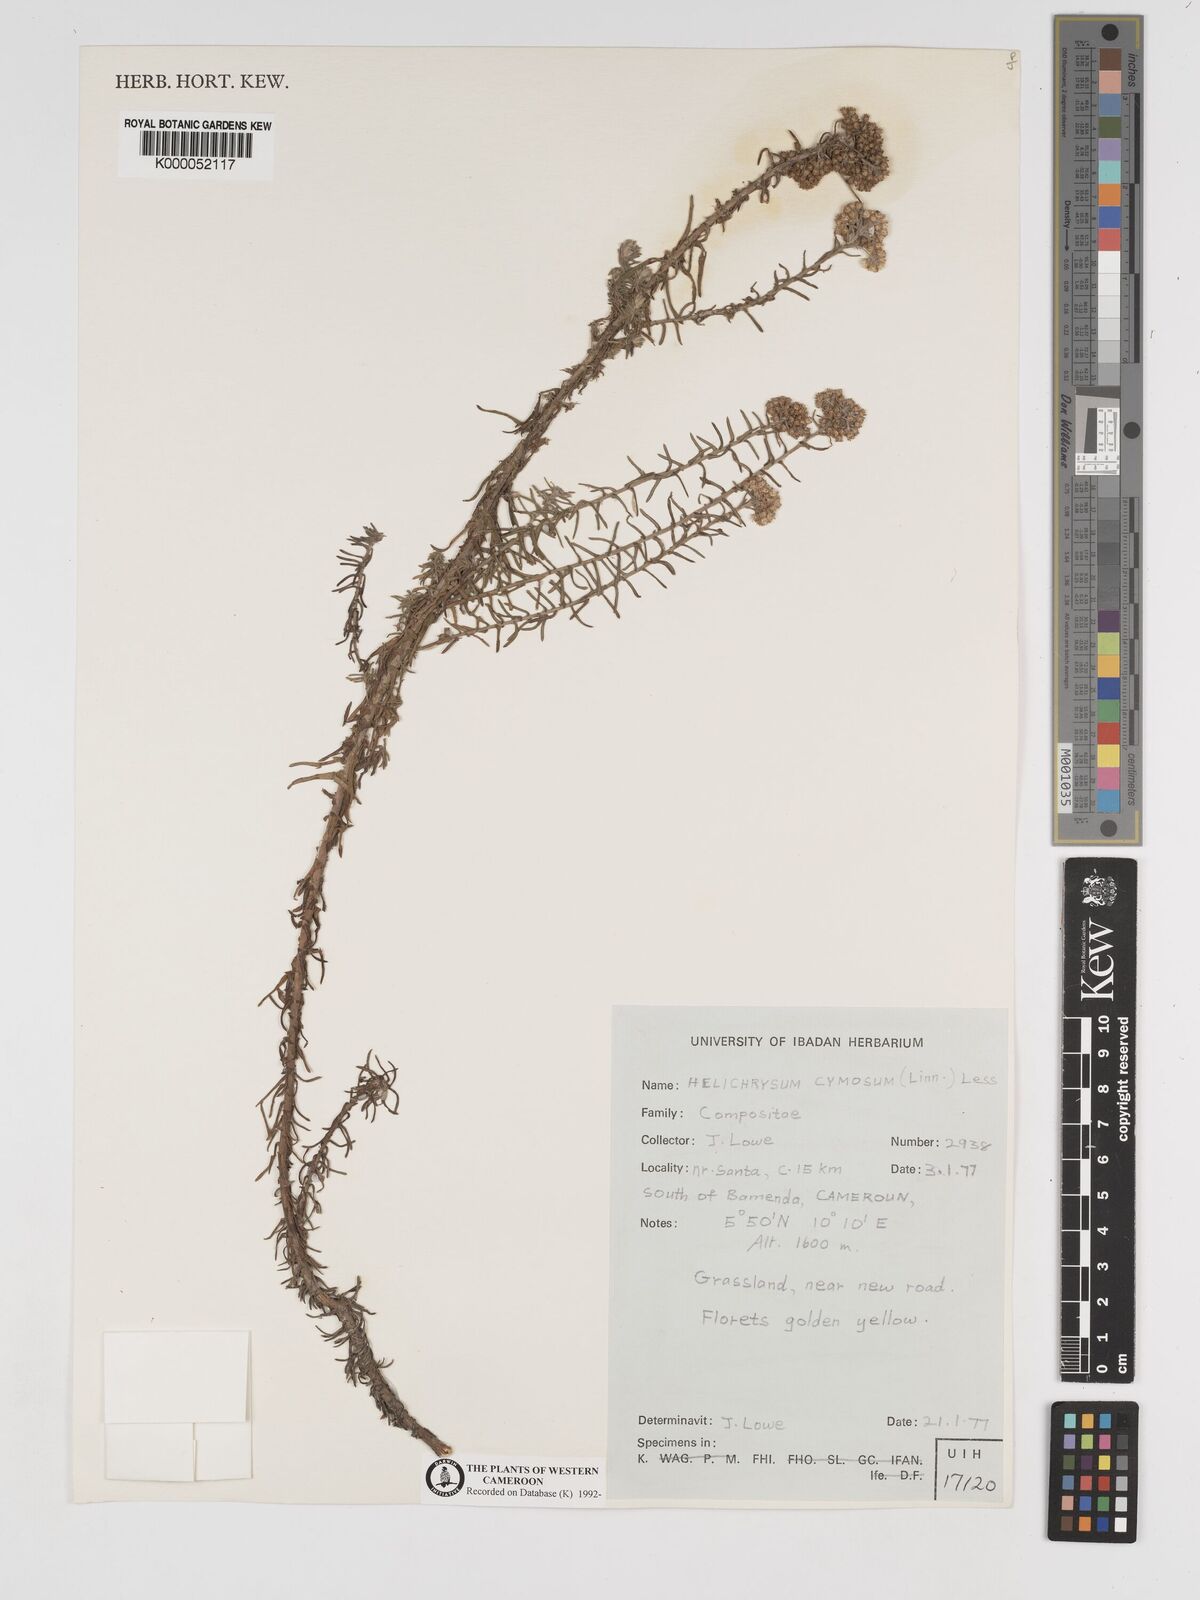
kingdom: Plantae
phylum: Tracheophyta
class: Magnoliopsida
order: Asterales
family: Asteraceae
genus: Helichrysum
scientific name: Helichrysum forskahlii
